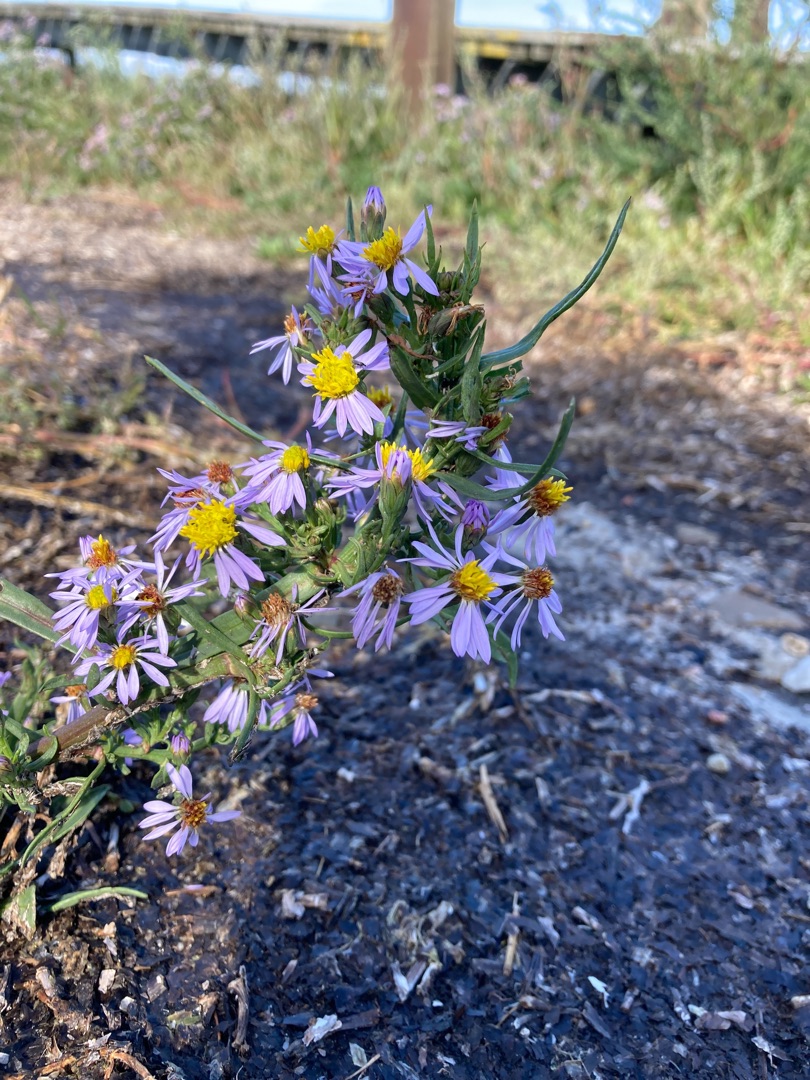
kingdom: Plantae
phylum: Tracheophyta
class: Magnoliopsida
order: Asterales
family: Asteraceae
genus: Tripolium
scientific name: Tripolium pannonicum
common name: Strandasters
